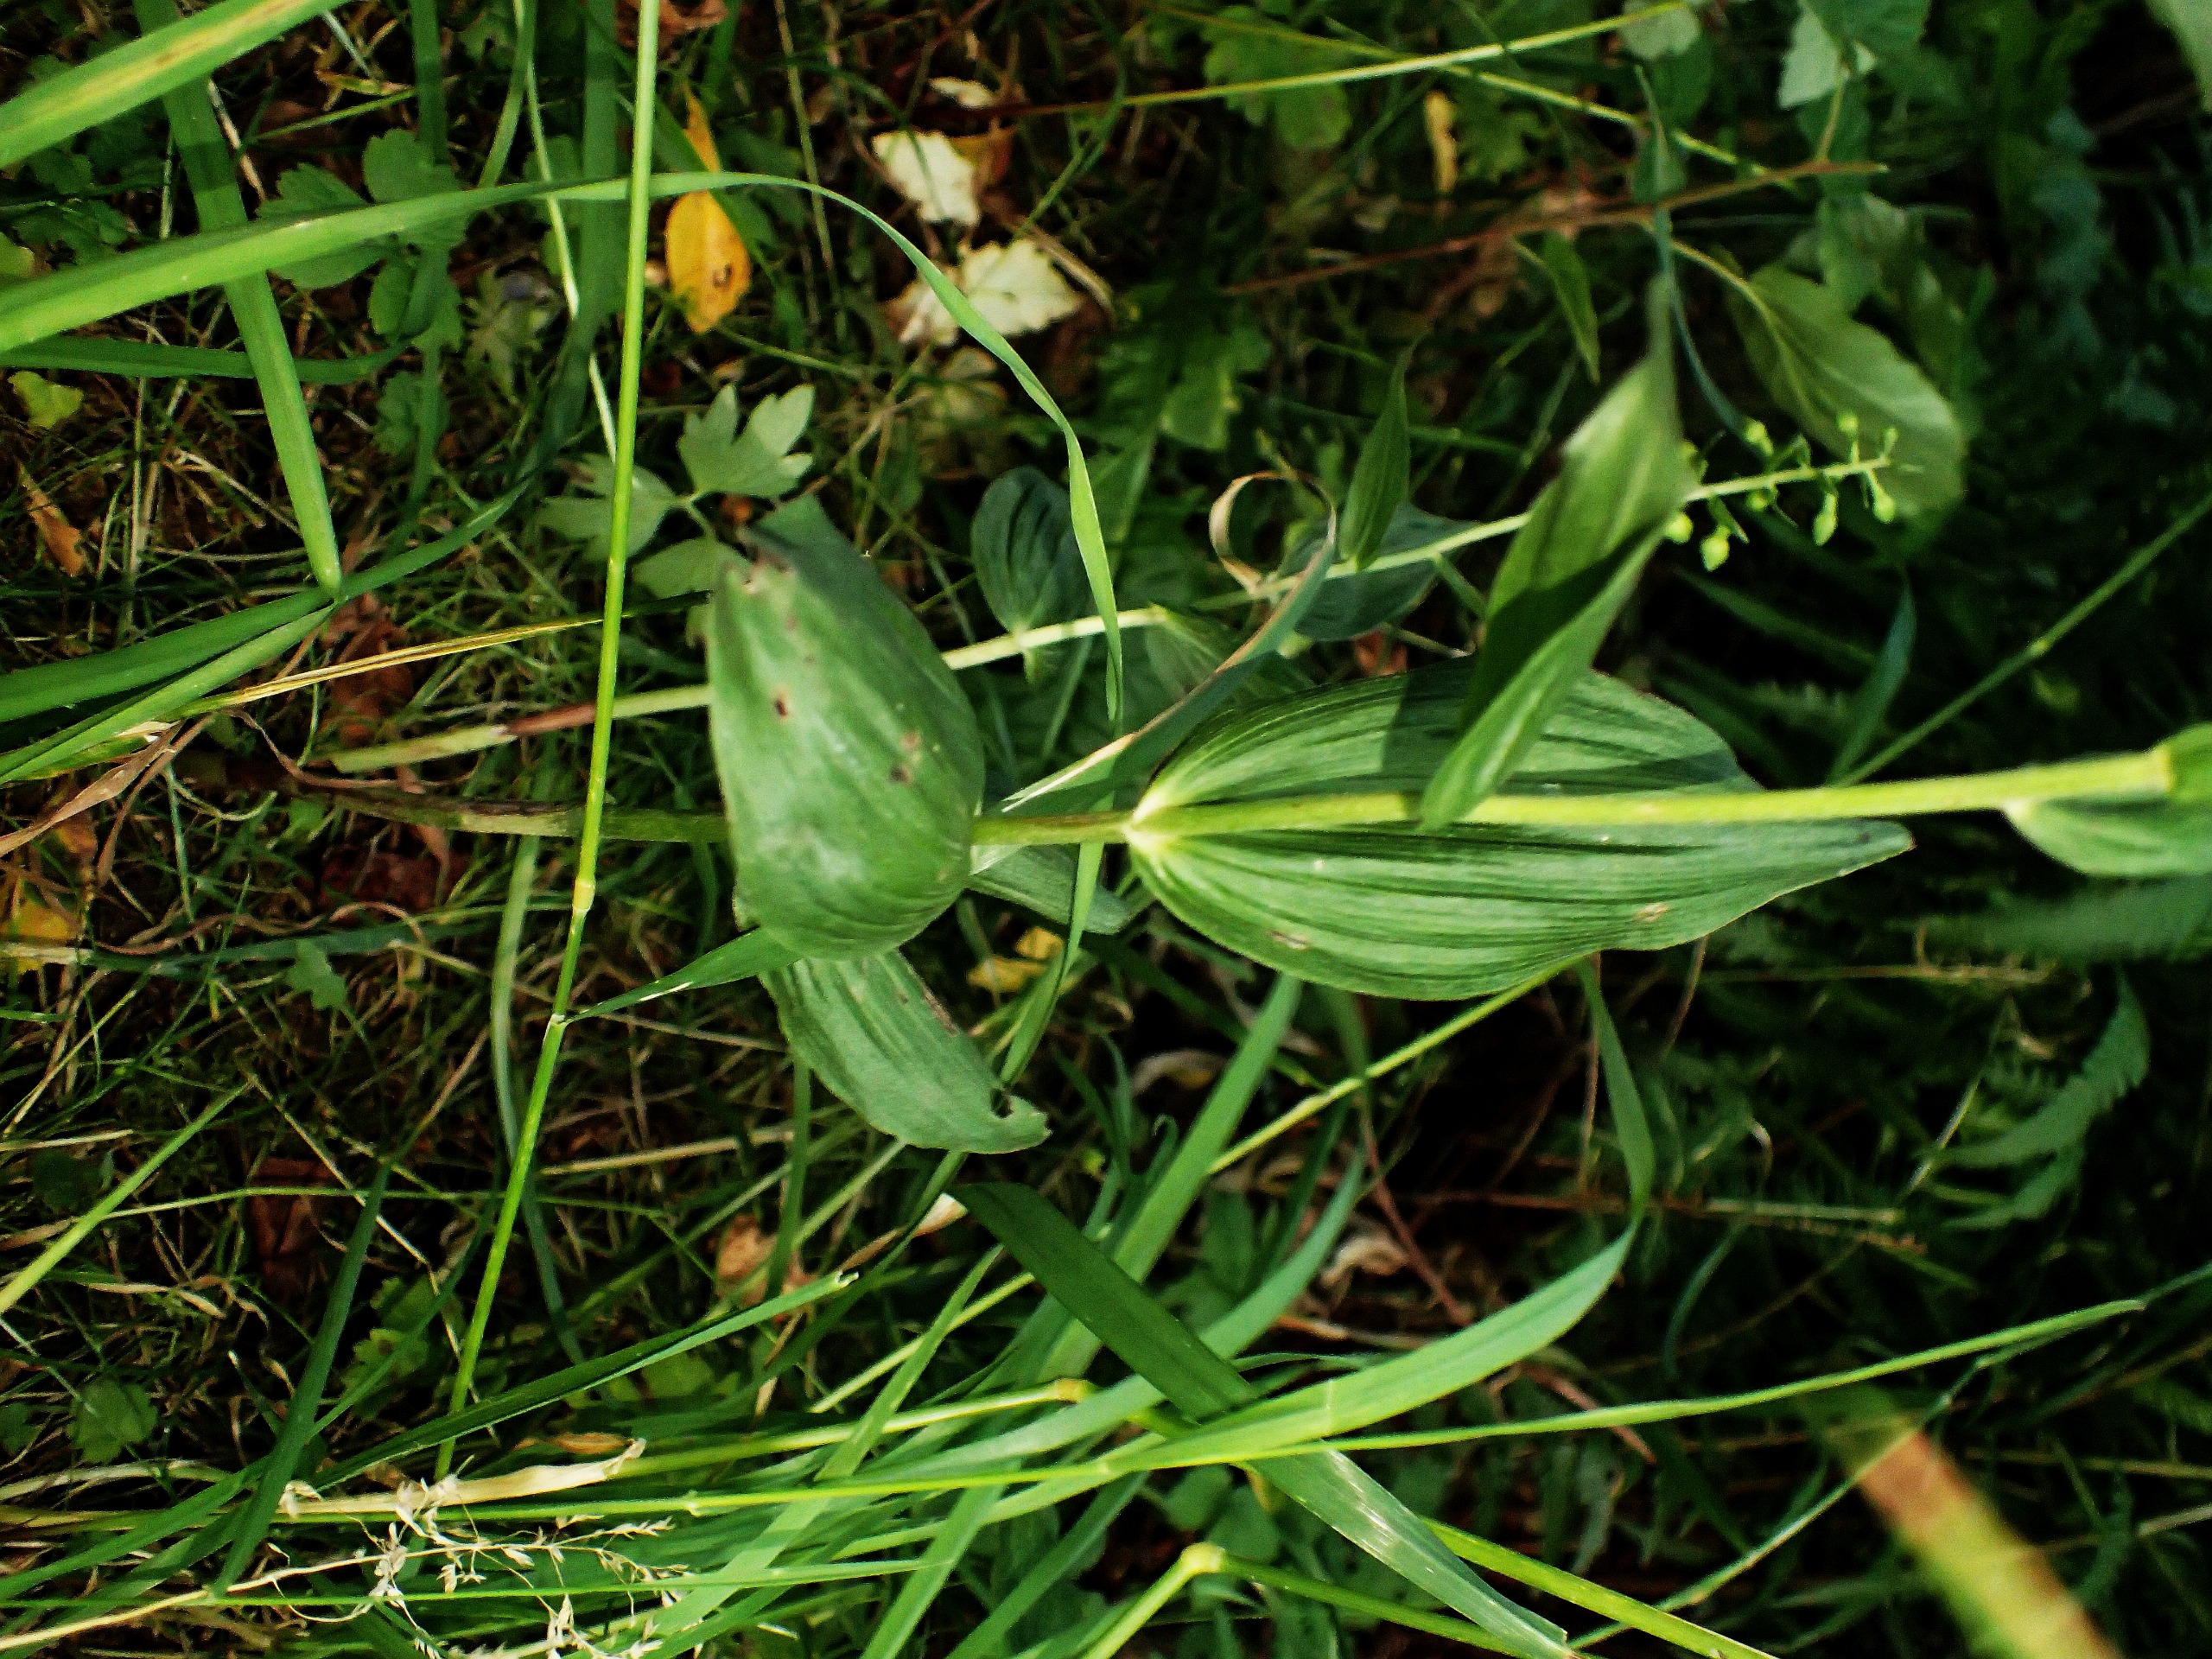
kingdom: Plantae
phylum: Tracheophyta
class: Liliopsida
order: Asparagales
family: Orchidaceae
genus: Epipactis
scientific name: Epipactis helleborine
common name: Skov-hullæbe
